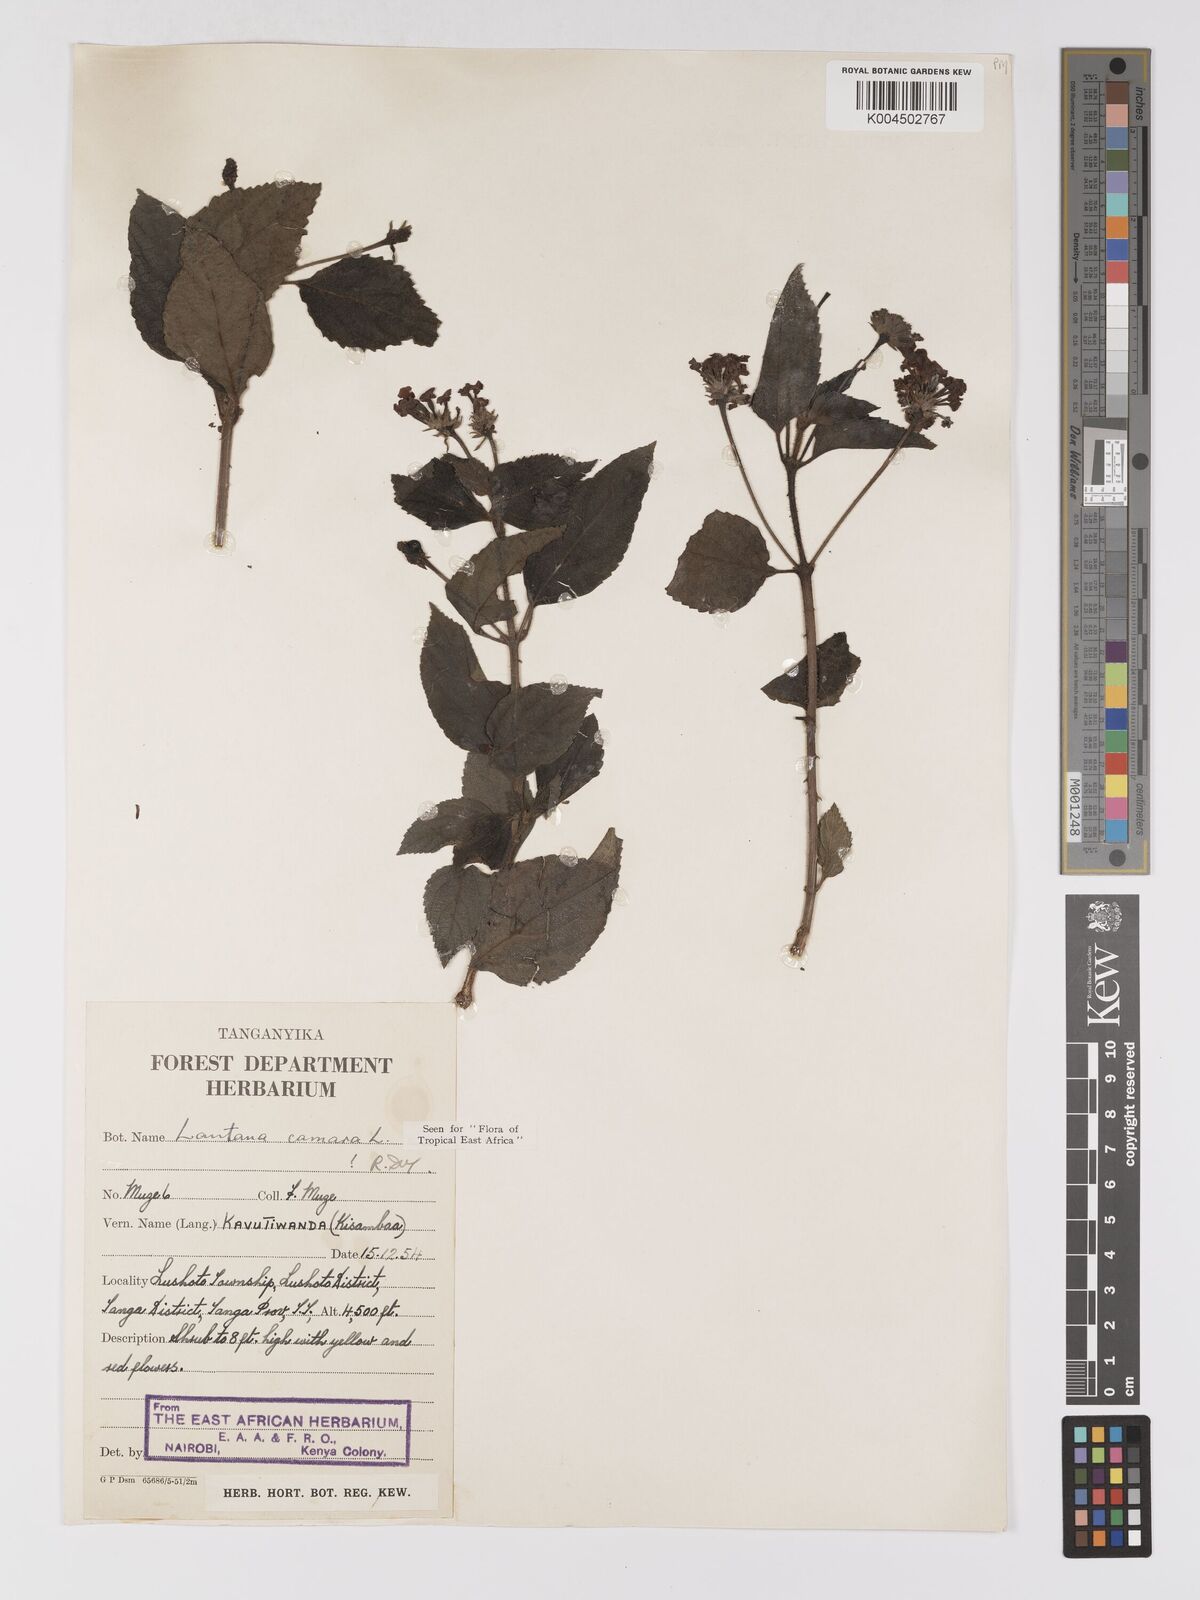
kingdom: Plantae
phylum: Tracheophyta
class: Magnoliopsida
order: Lamiales
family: Verbenaceae
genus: Lantana
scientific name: Lantana camara
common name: Lantana
